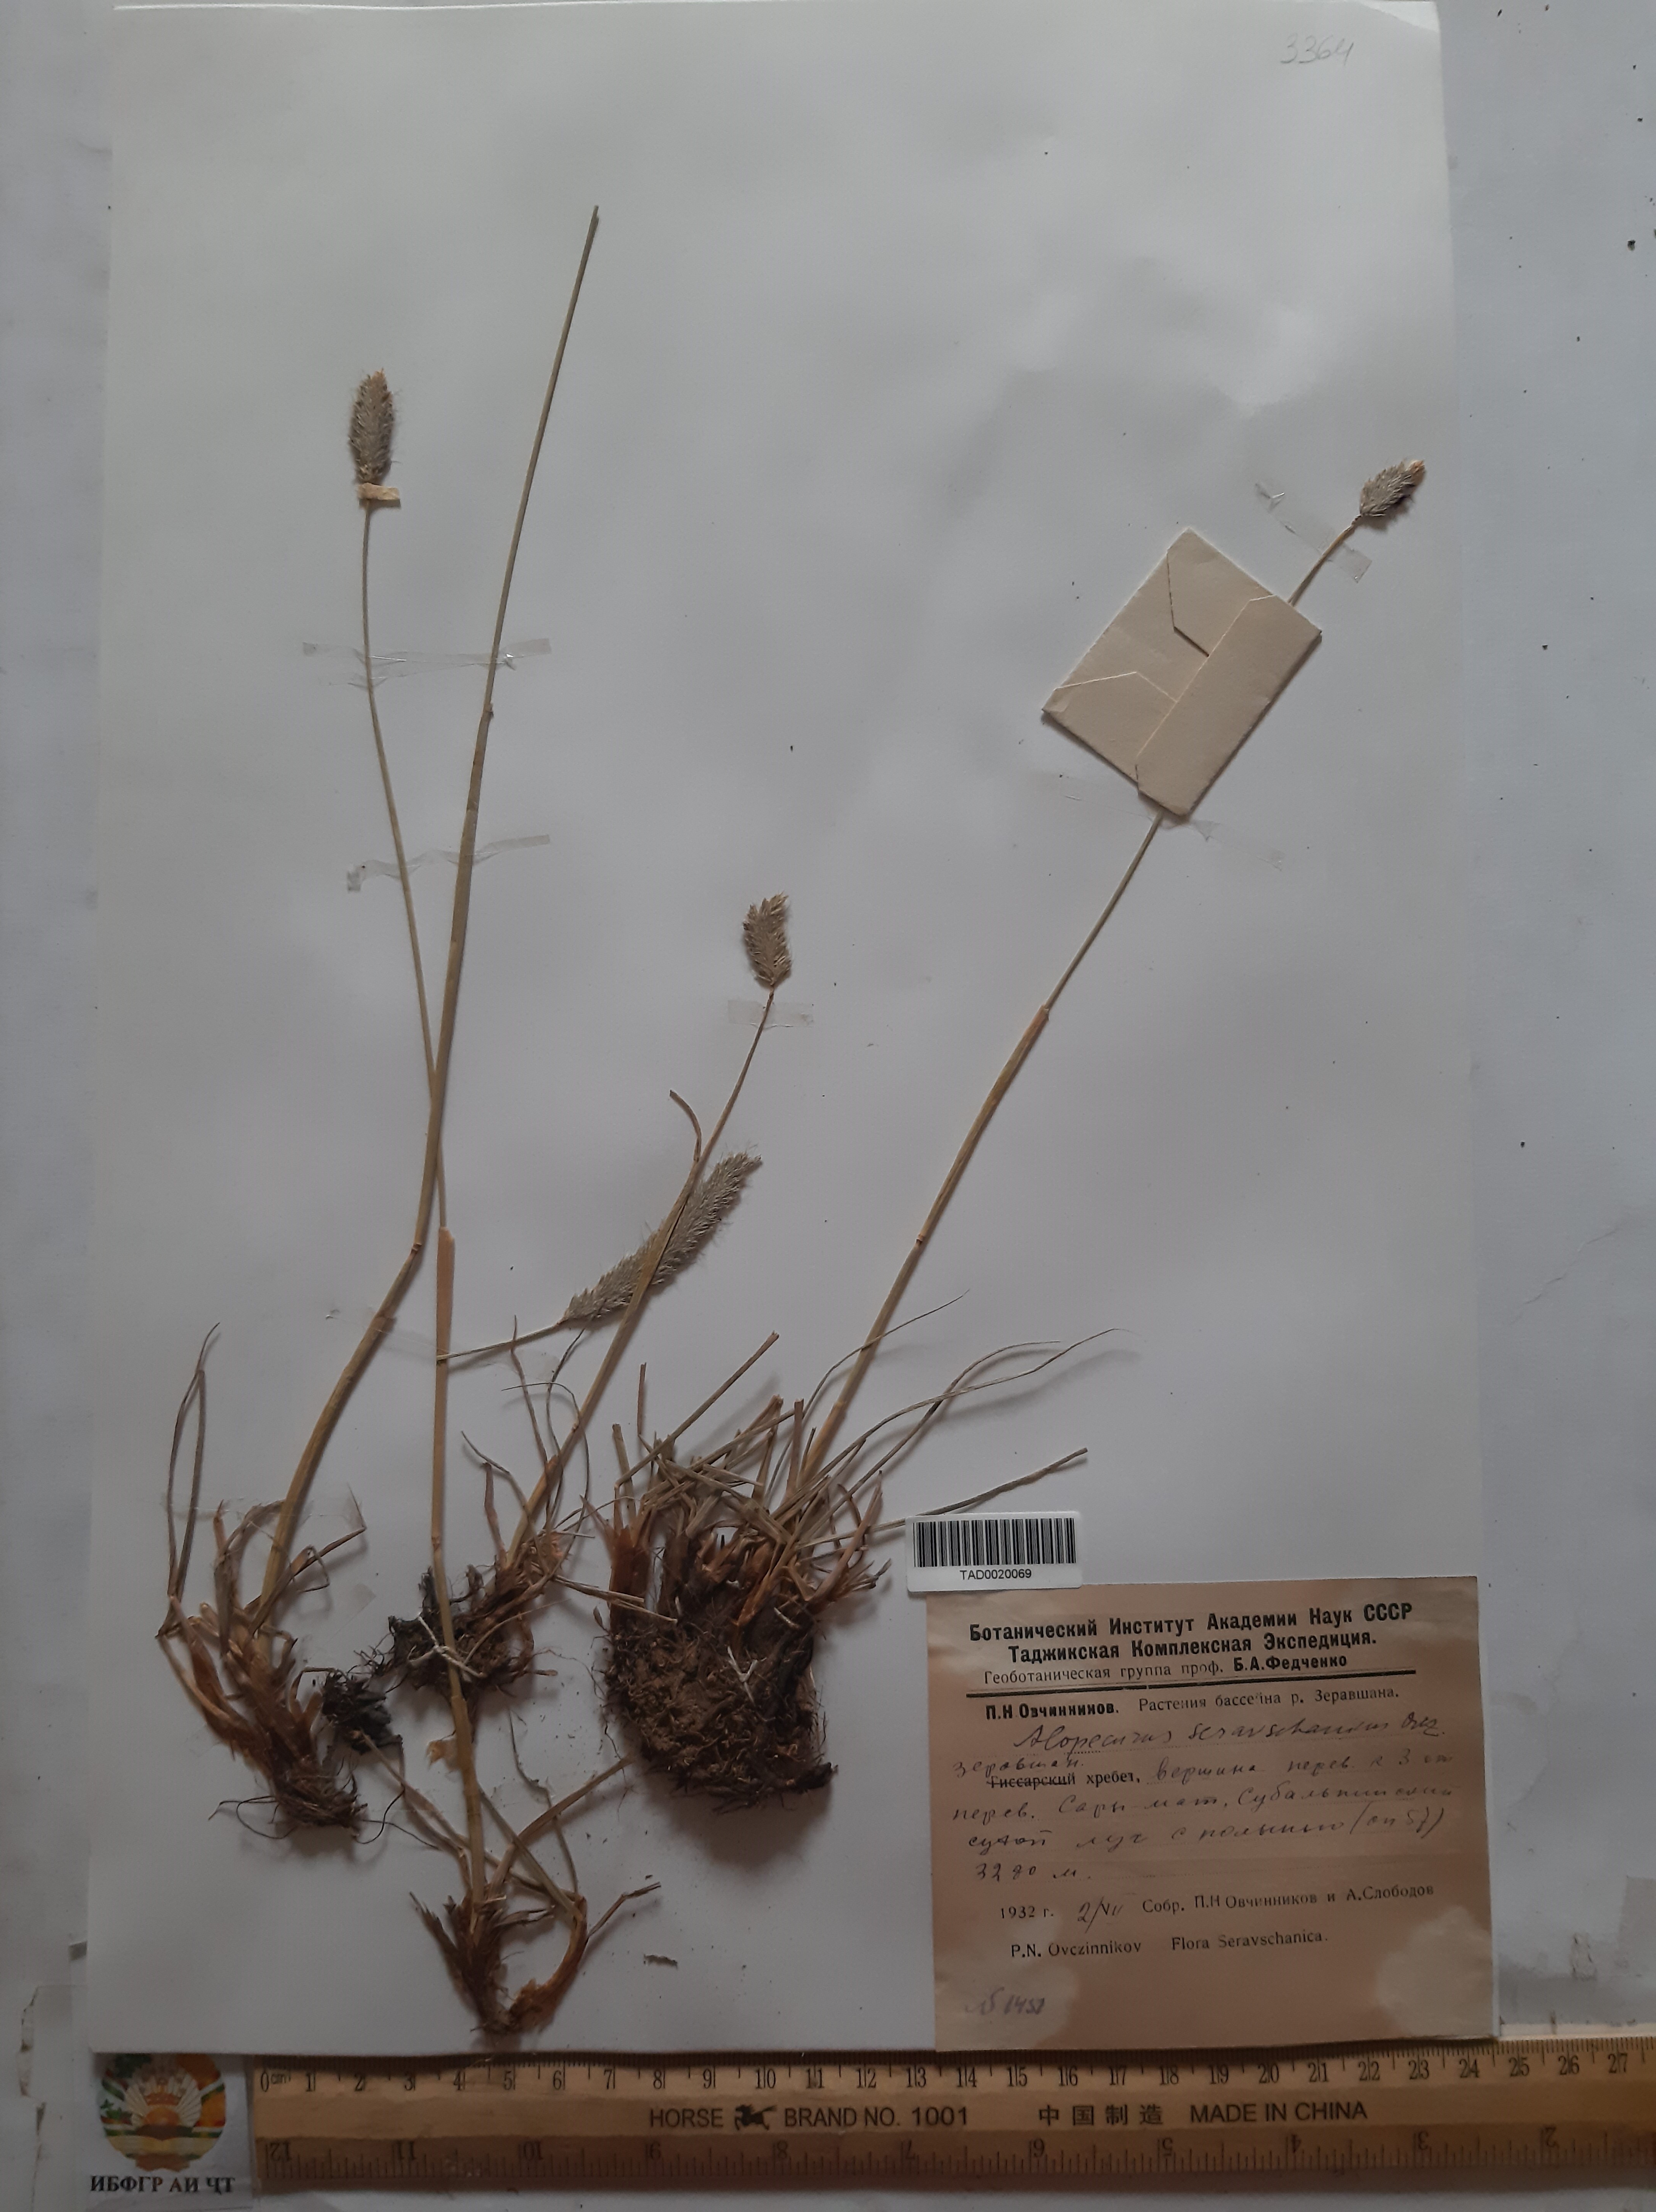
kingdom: Plantae
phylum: Tracheophyta
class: Liliopsida
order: Poales
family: Poaceae
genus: Alopecurus
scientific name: Alopecurus pratensis
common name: Meadow foxtail
